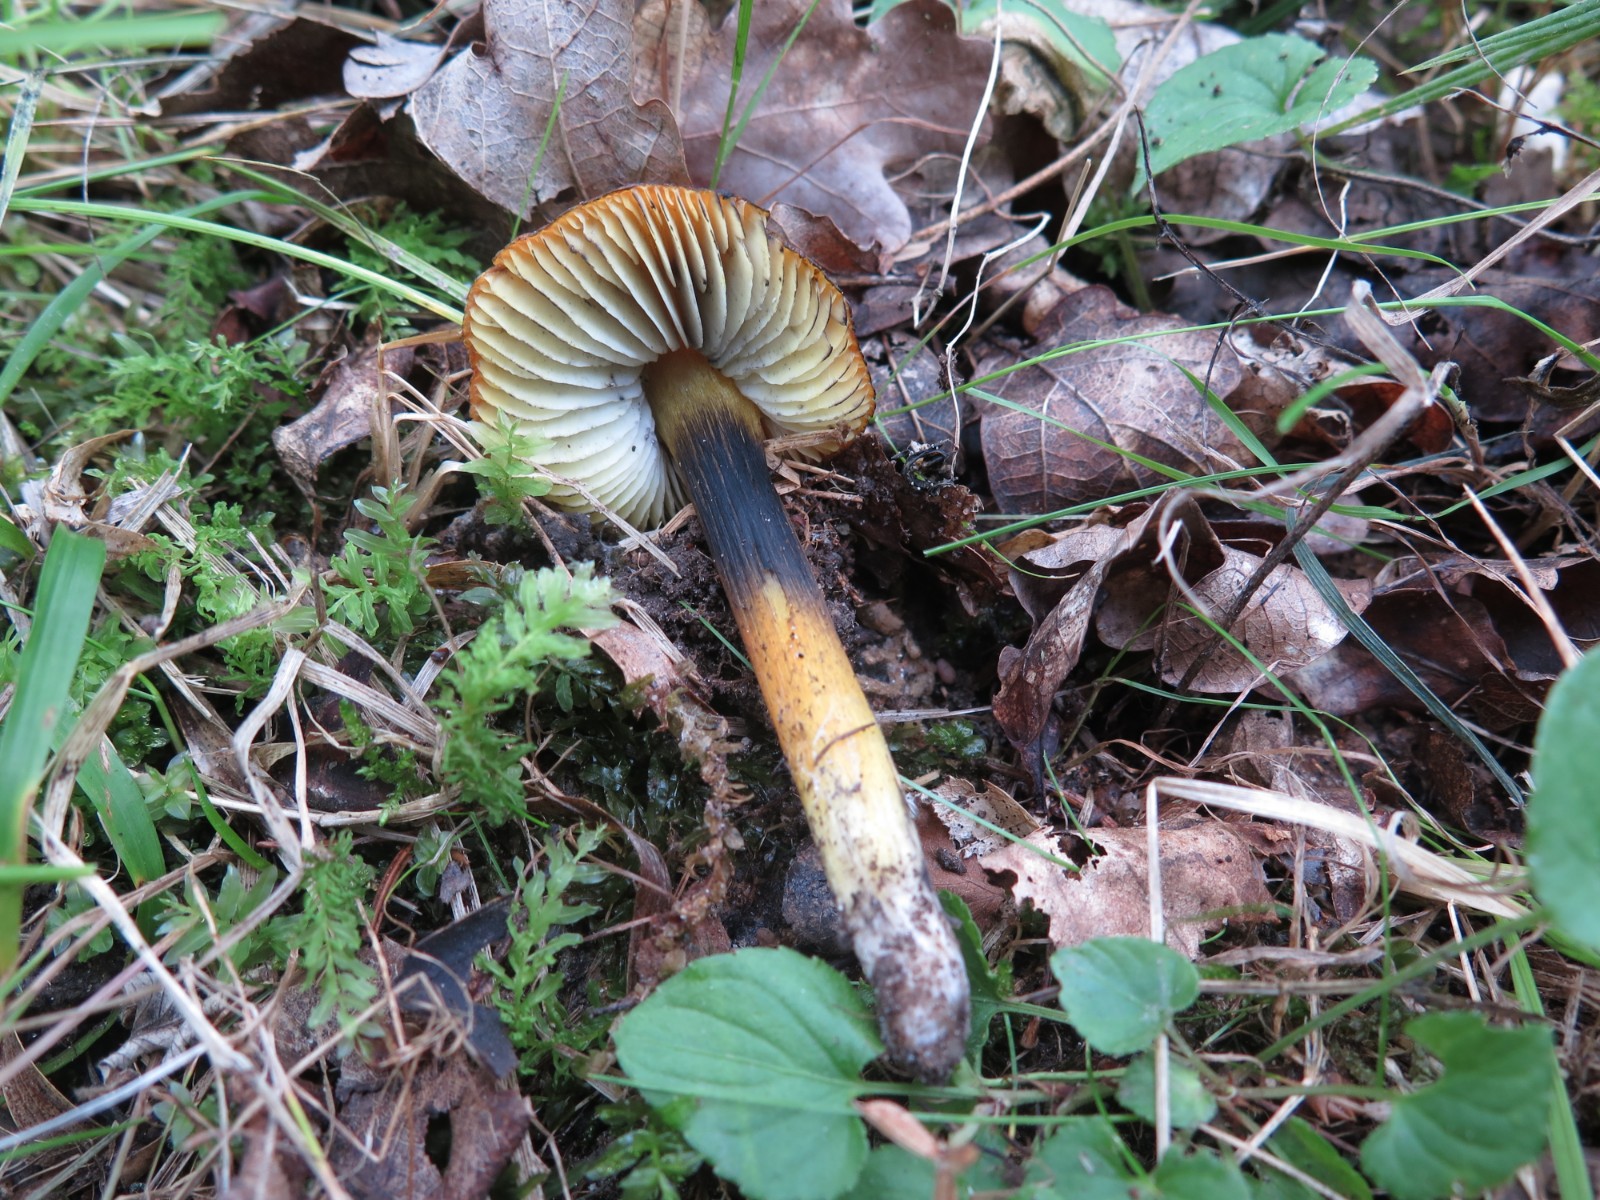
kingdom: Fungi
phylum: Basidiomycota
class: Agaricomycetes
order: Agaricales
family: Hygrophoraceae
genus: Hygrocybe
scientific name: Hygrocybe conica
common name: kegle-vokshat
